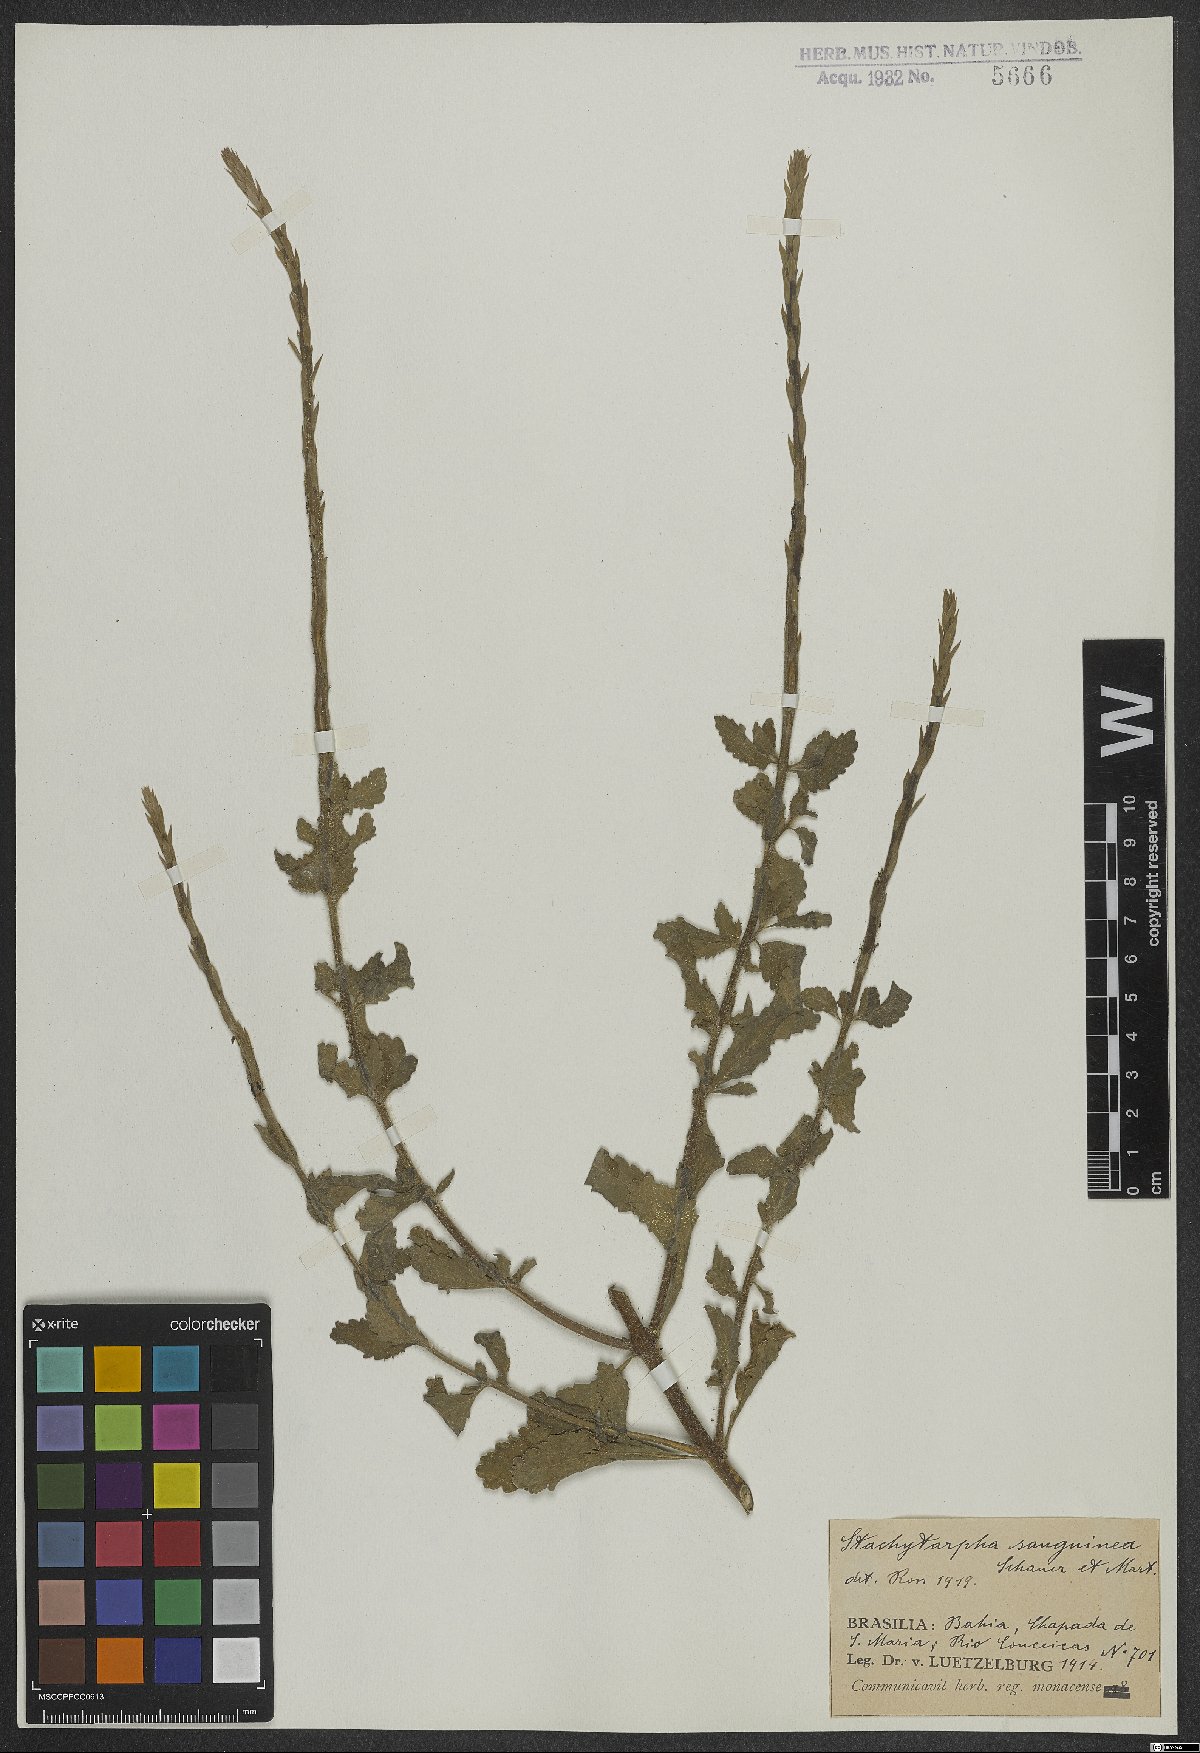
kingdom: Plantae
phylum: Tracheophyta
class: Magnoliopsida
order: Lamiales
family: Verbenaceae
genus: Stachytarpheta
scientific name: Stachytarpheta microphylla
